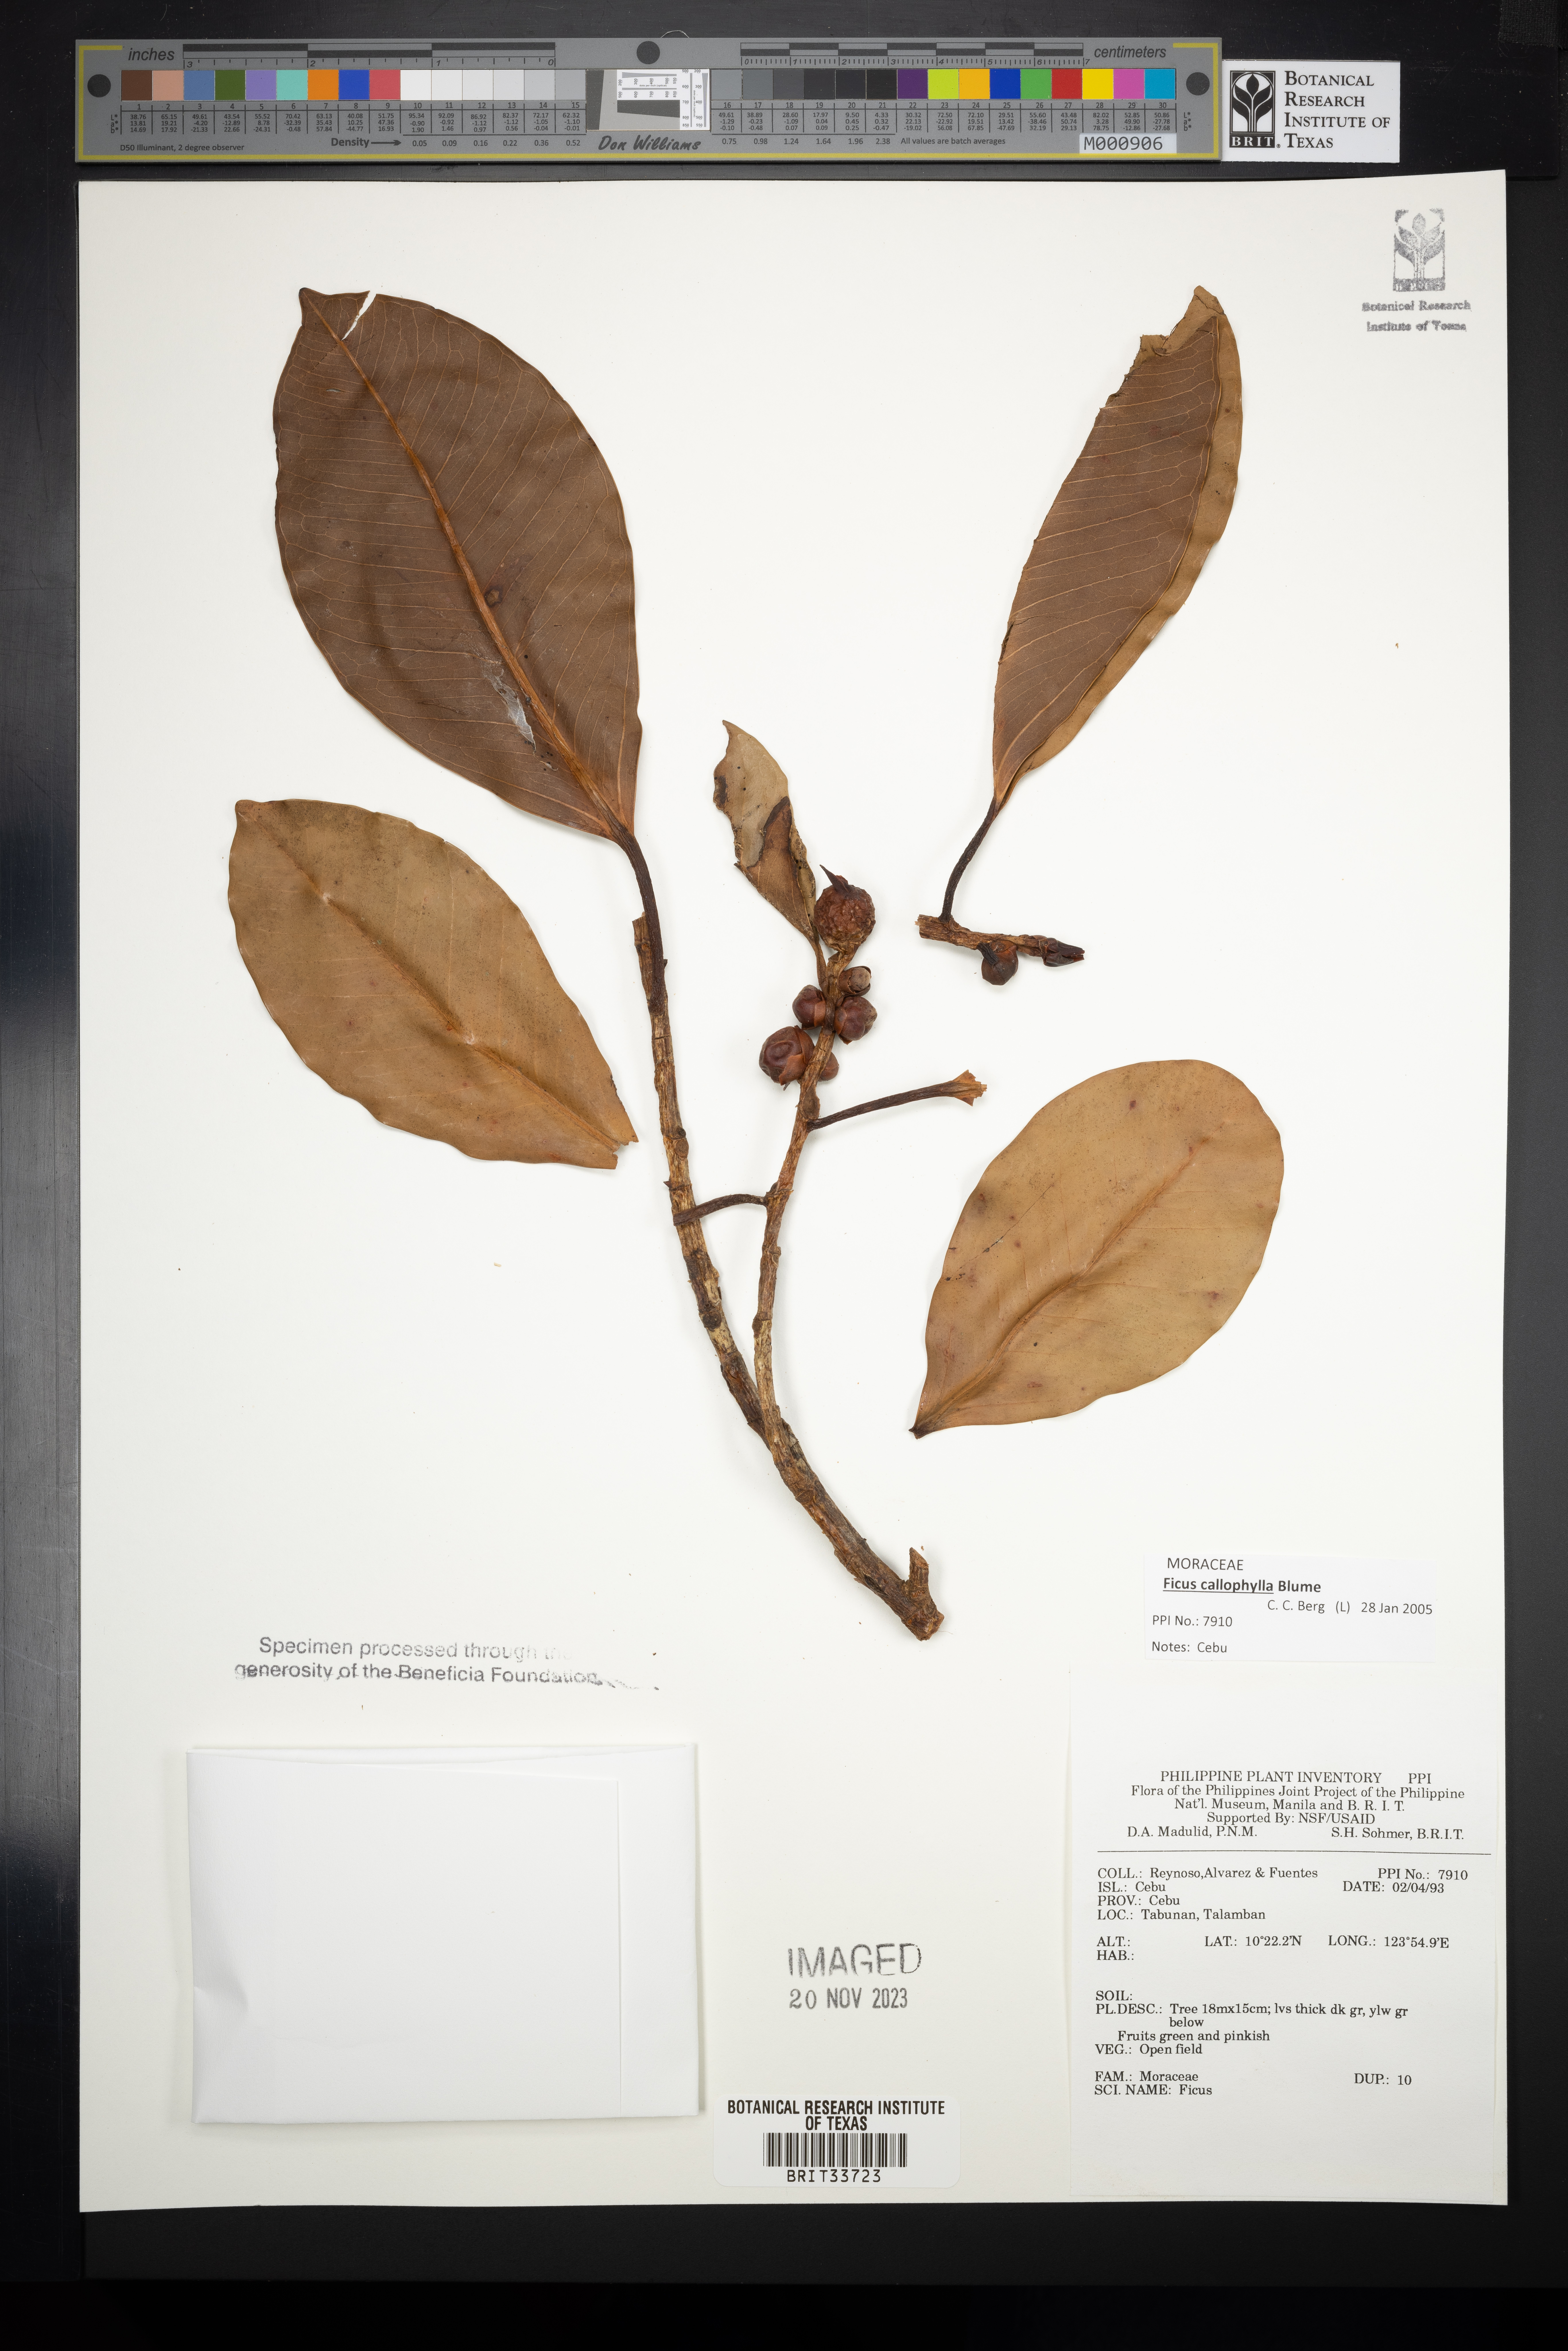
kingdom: Plantae
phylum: Tracheophyta
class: Magnoliopsida
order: Rosales
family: Moraceae
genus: Ficus
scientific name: Ficus
